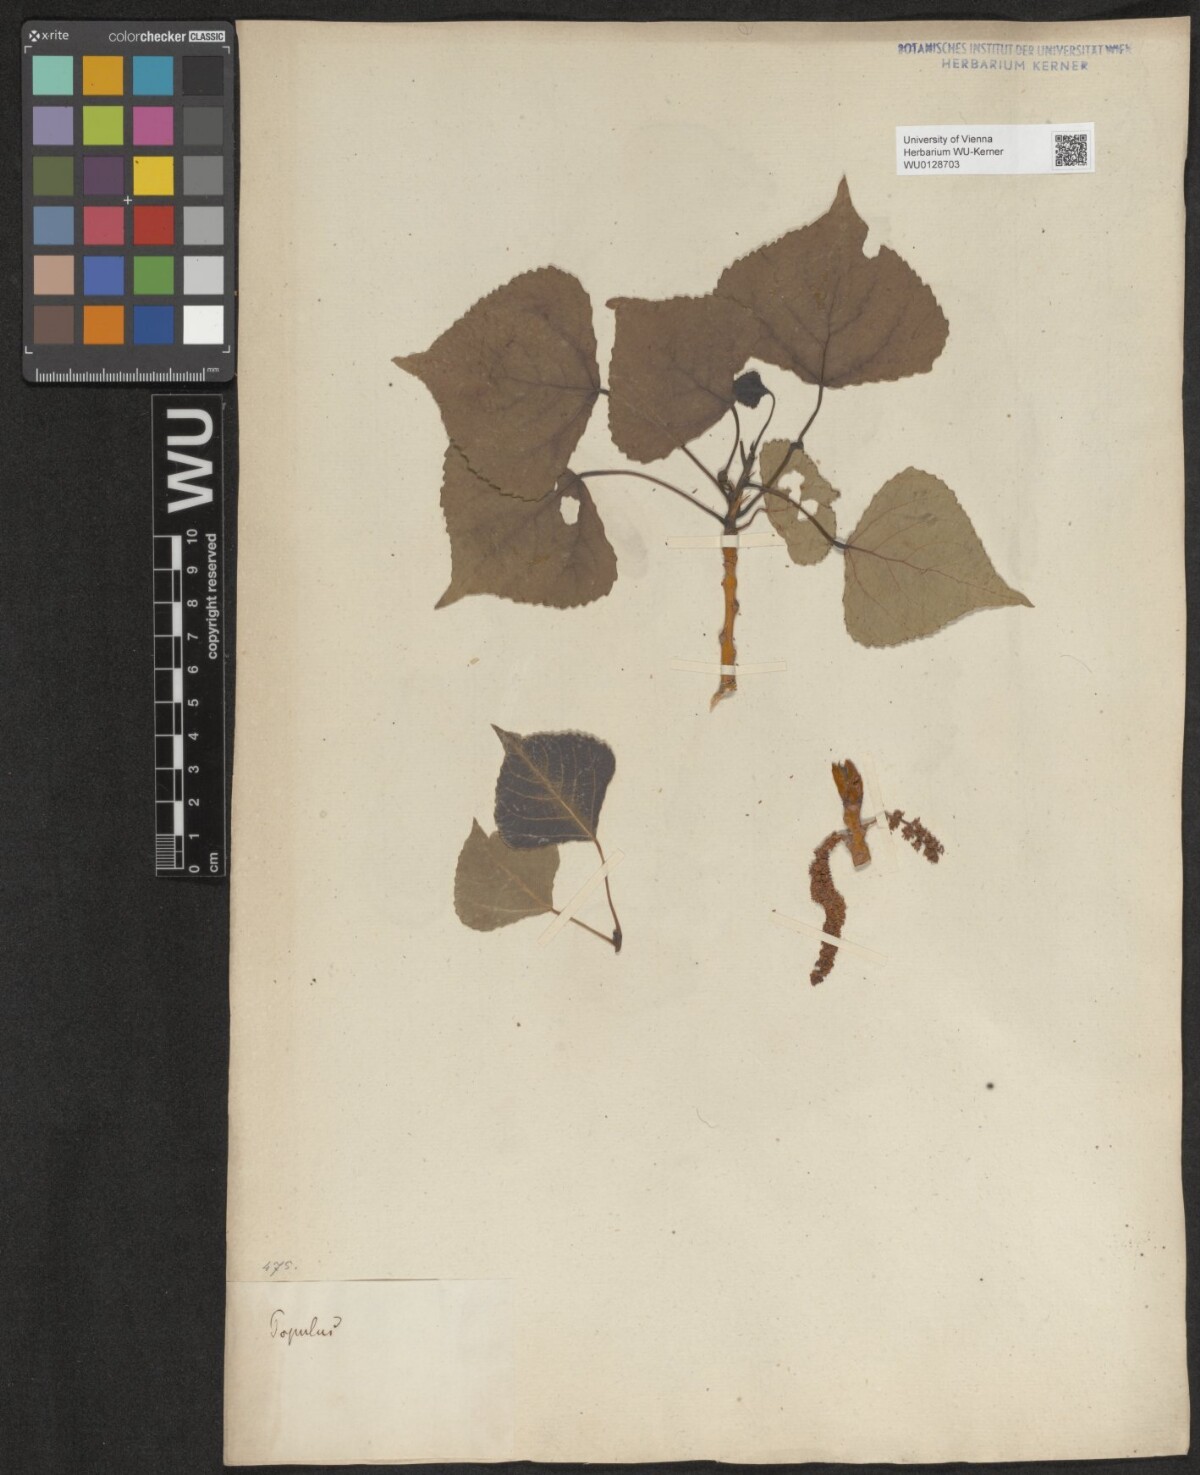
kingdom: Plantae
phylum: Tracheophyta
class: Magnoliopsida
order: Malpighiales
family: Salicaceae
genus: Populus
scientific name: Populus
